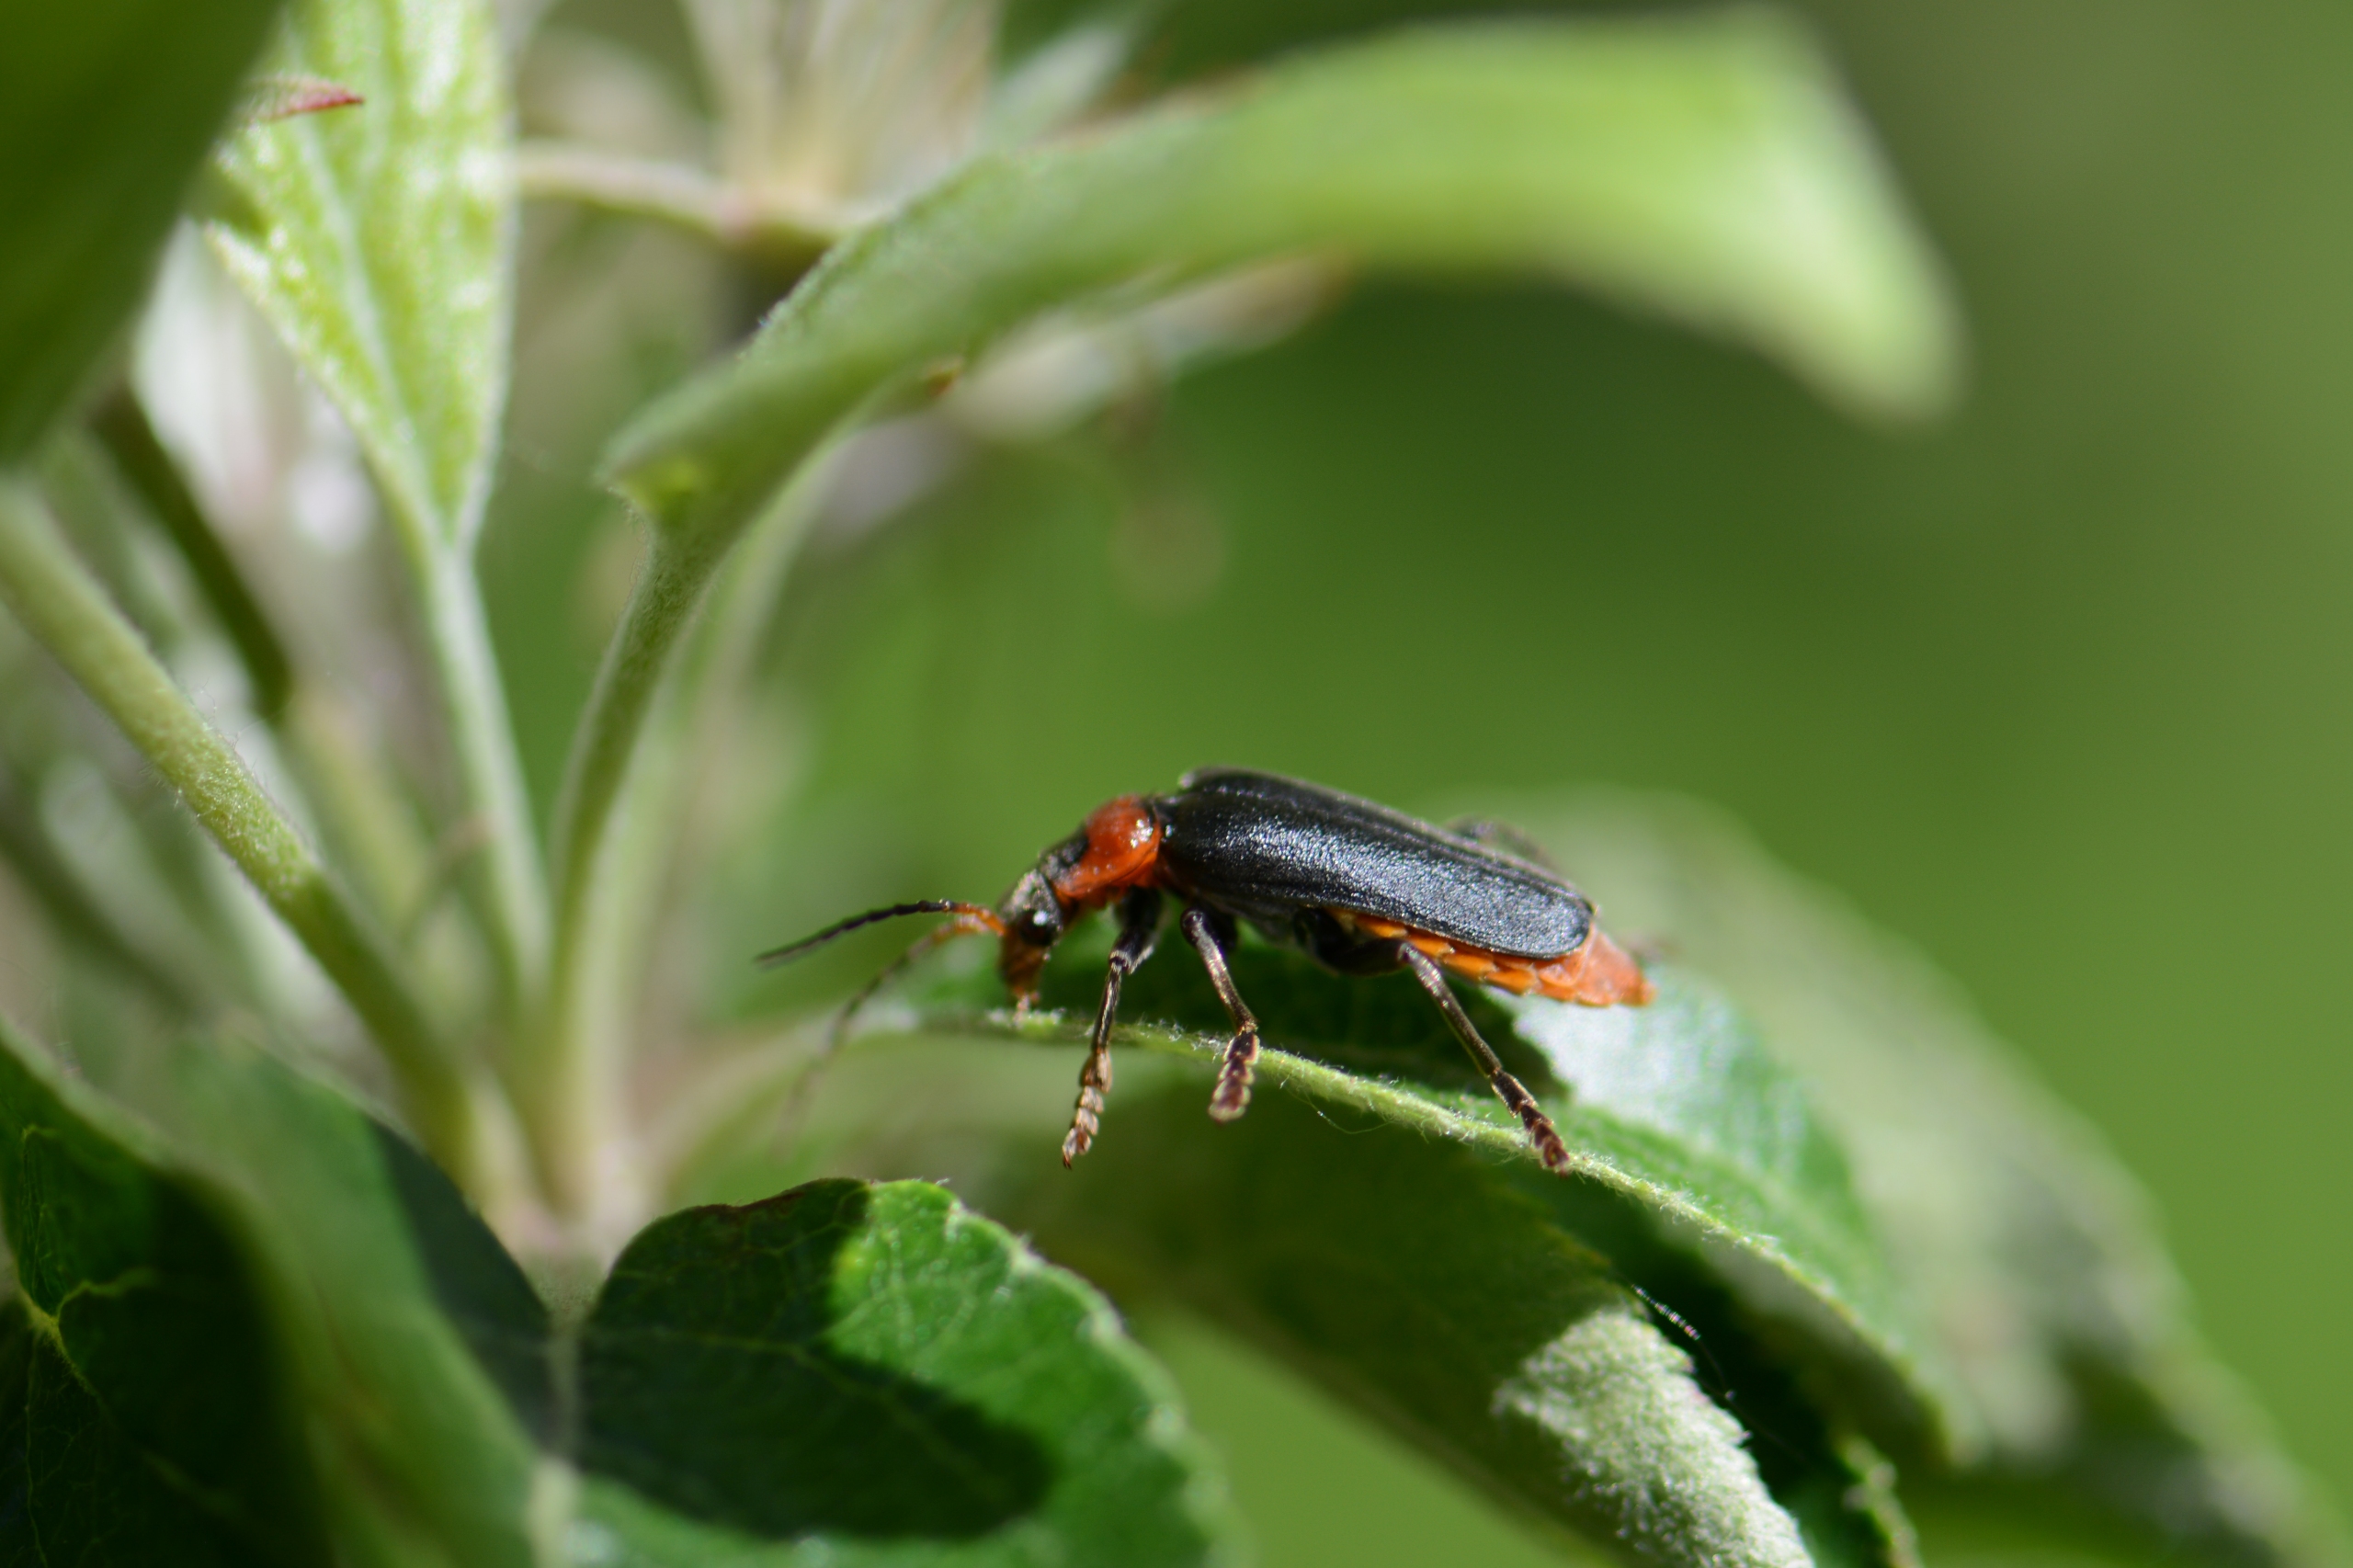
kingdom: Animalia
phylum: Arthropoda
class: Insecta
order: Coleoptera
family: Cantharidae
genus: Cantharis
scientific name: Cantharis fusca
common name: Stor blødvinge
